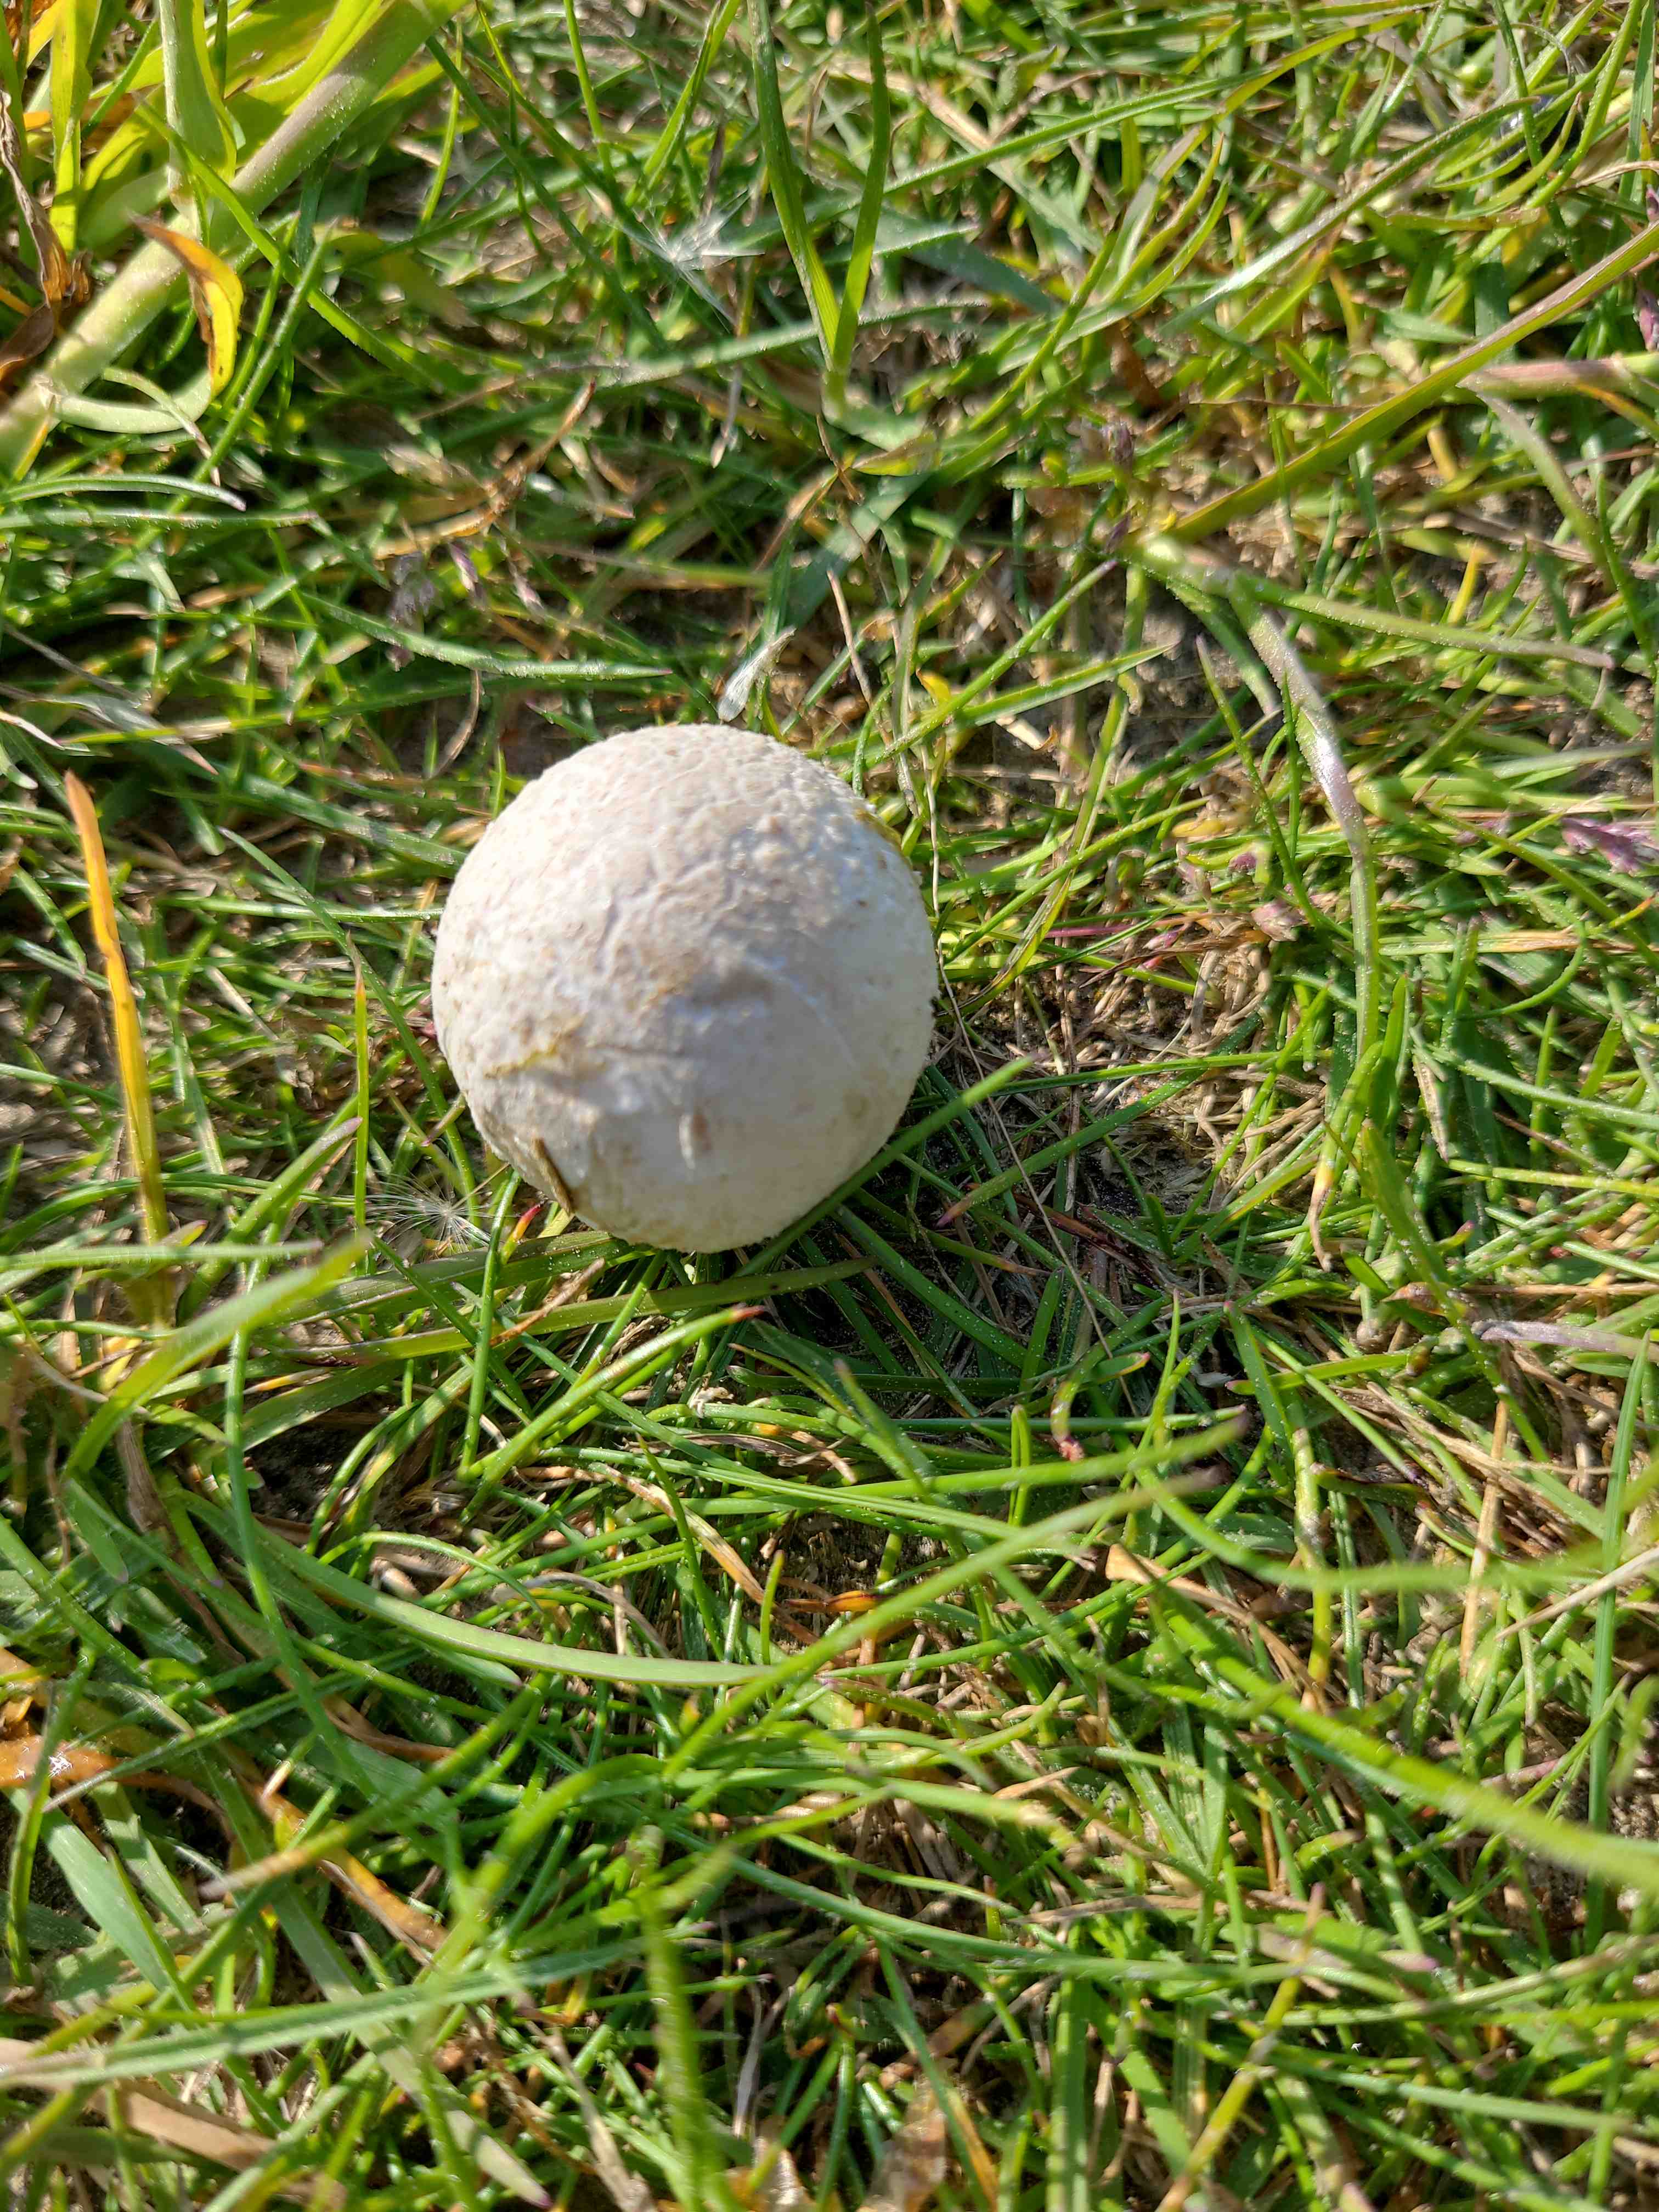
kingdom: Fungi
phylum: Basidiomycota
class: Agaricomycetes
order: Agaricales
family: Agaricaceae
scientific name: Agaricaceae
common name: champignonfamilien
